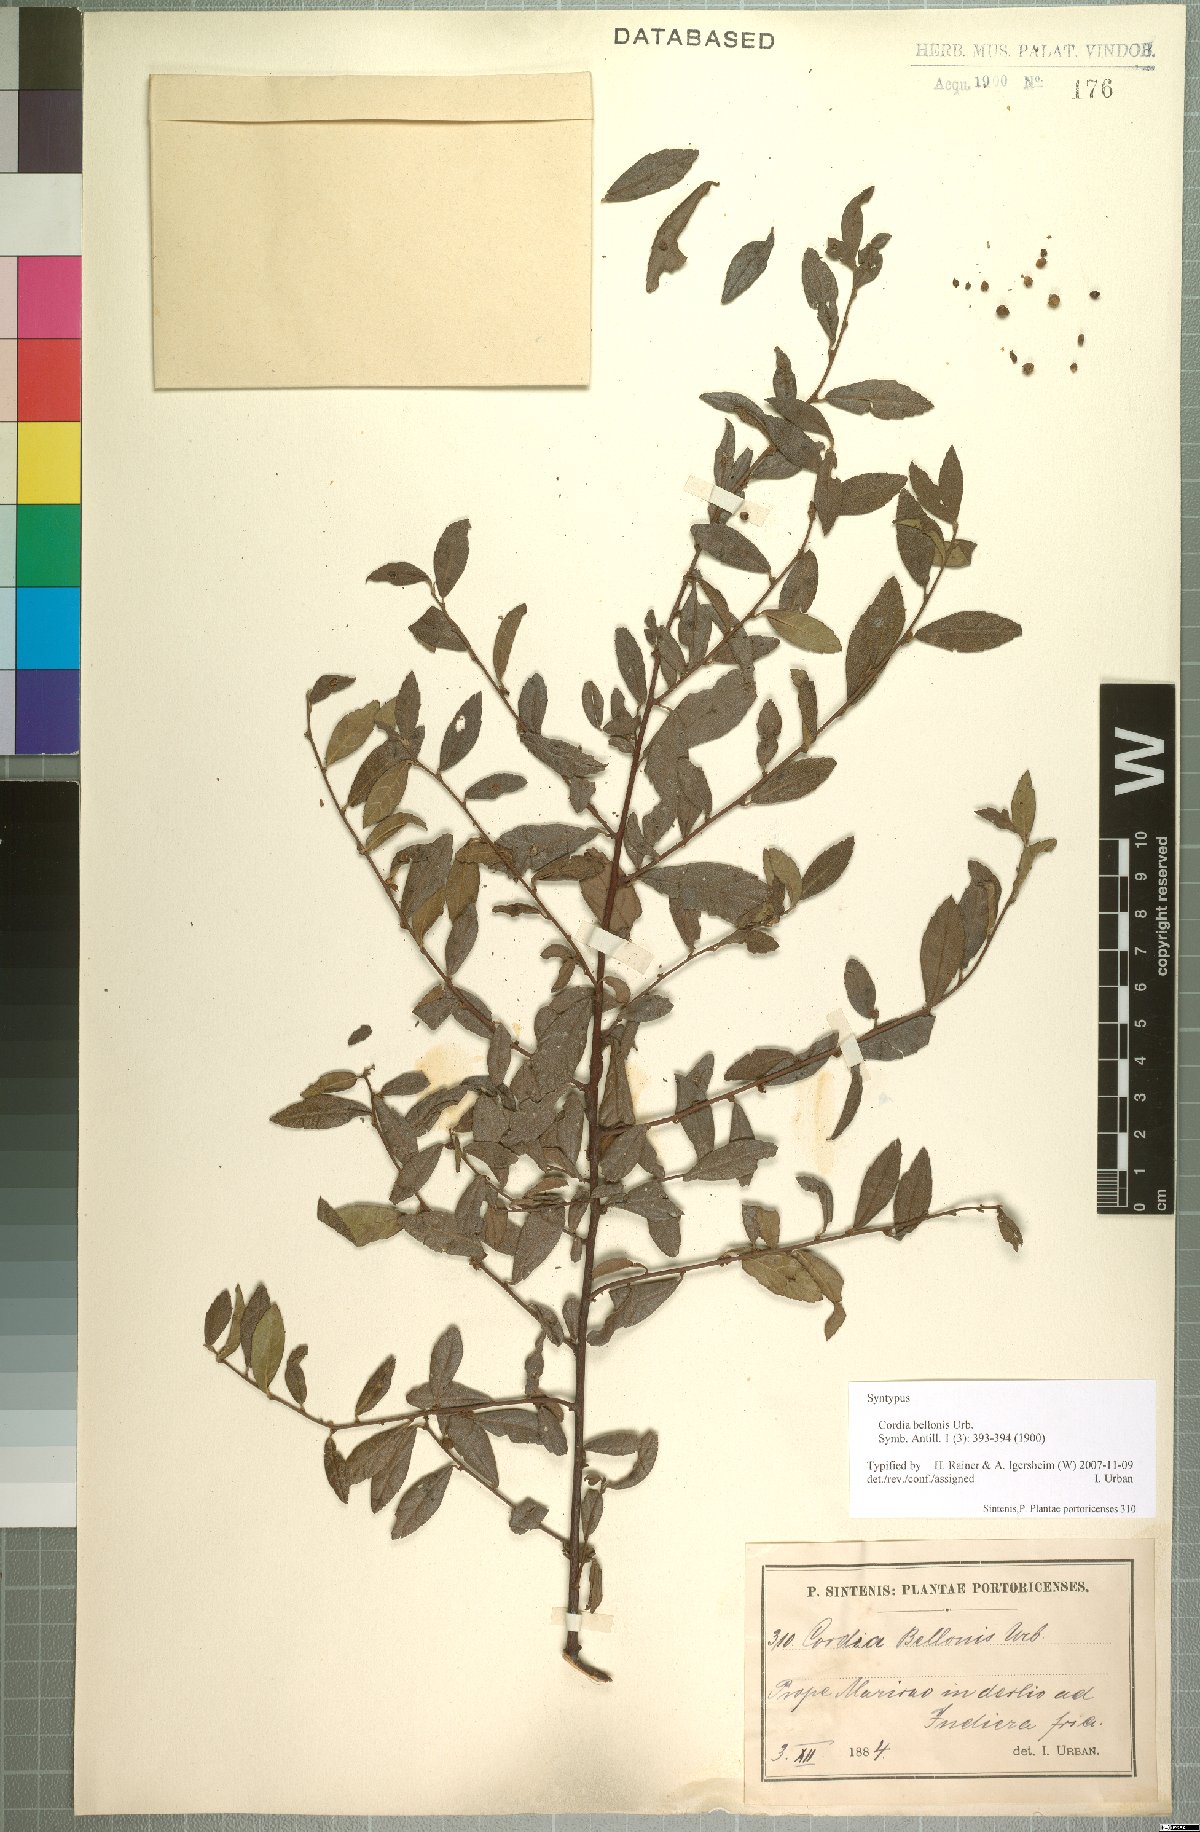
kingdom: Plantae
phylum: Tracheophyta
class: Magnoliopsida
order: Boraginales
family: Cordiaceae
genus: Varronia
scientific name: Varronia bellonis
